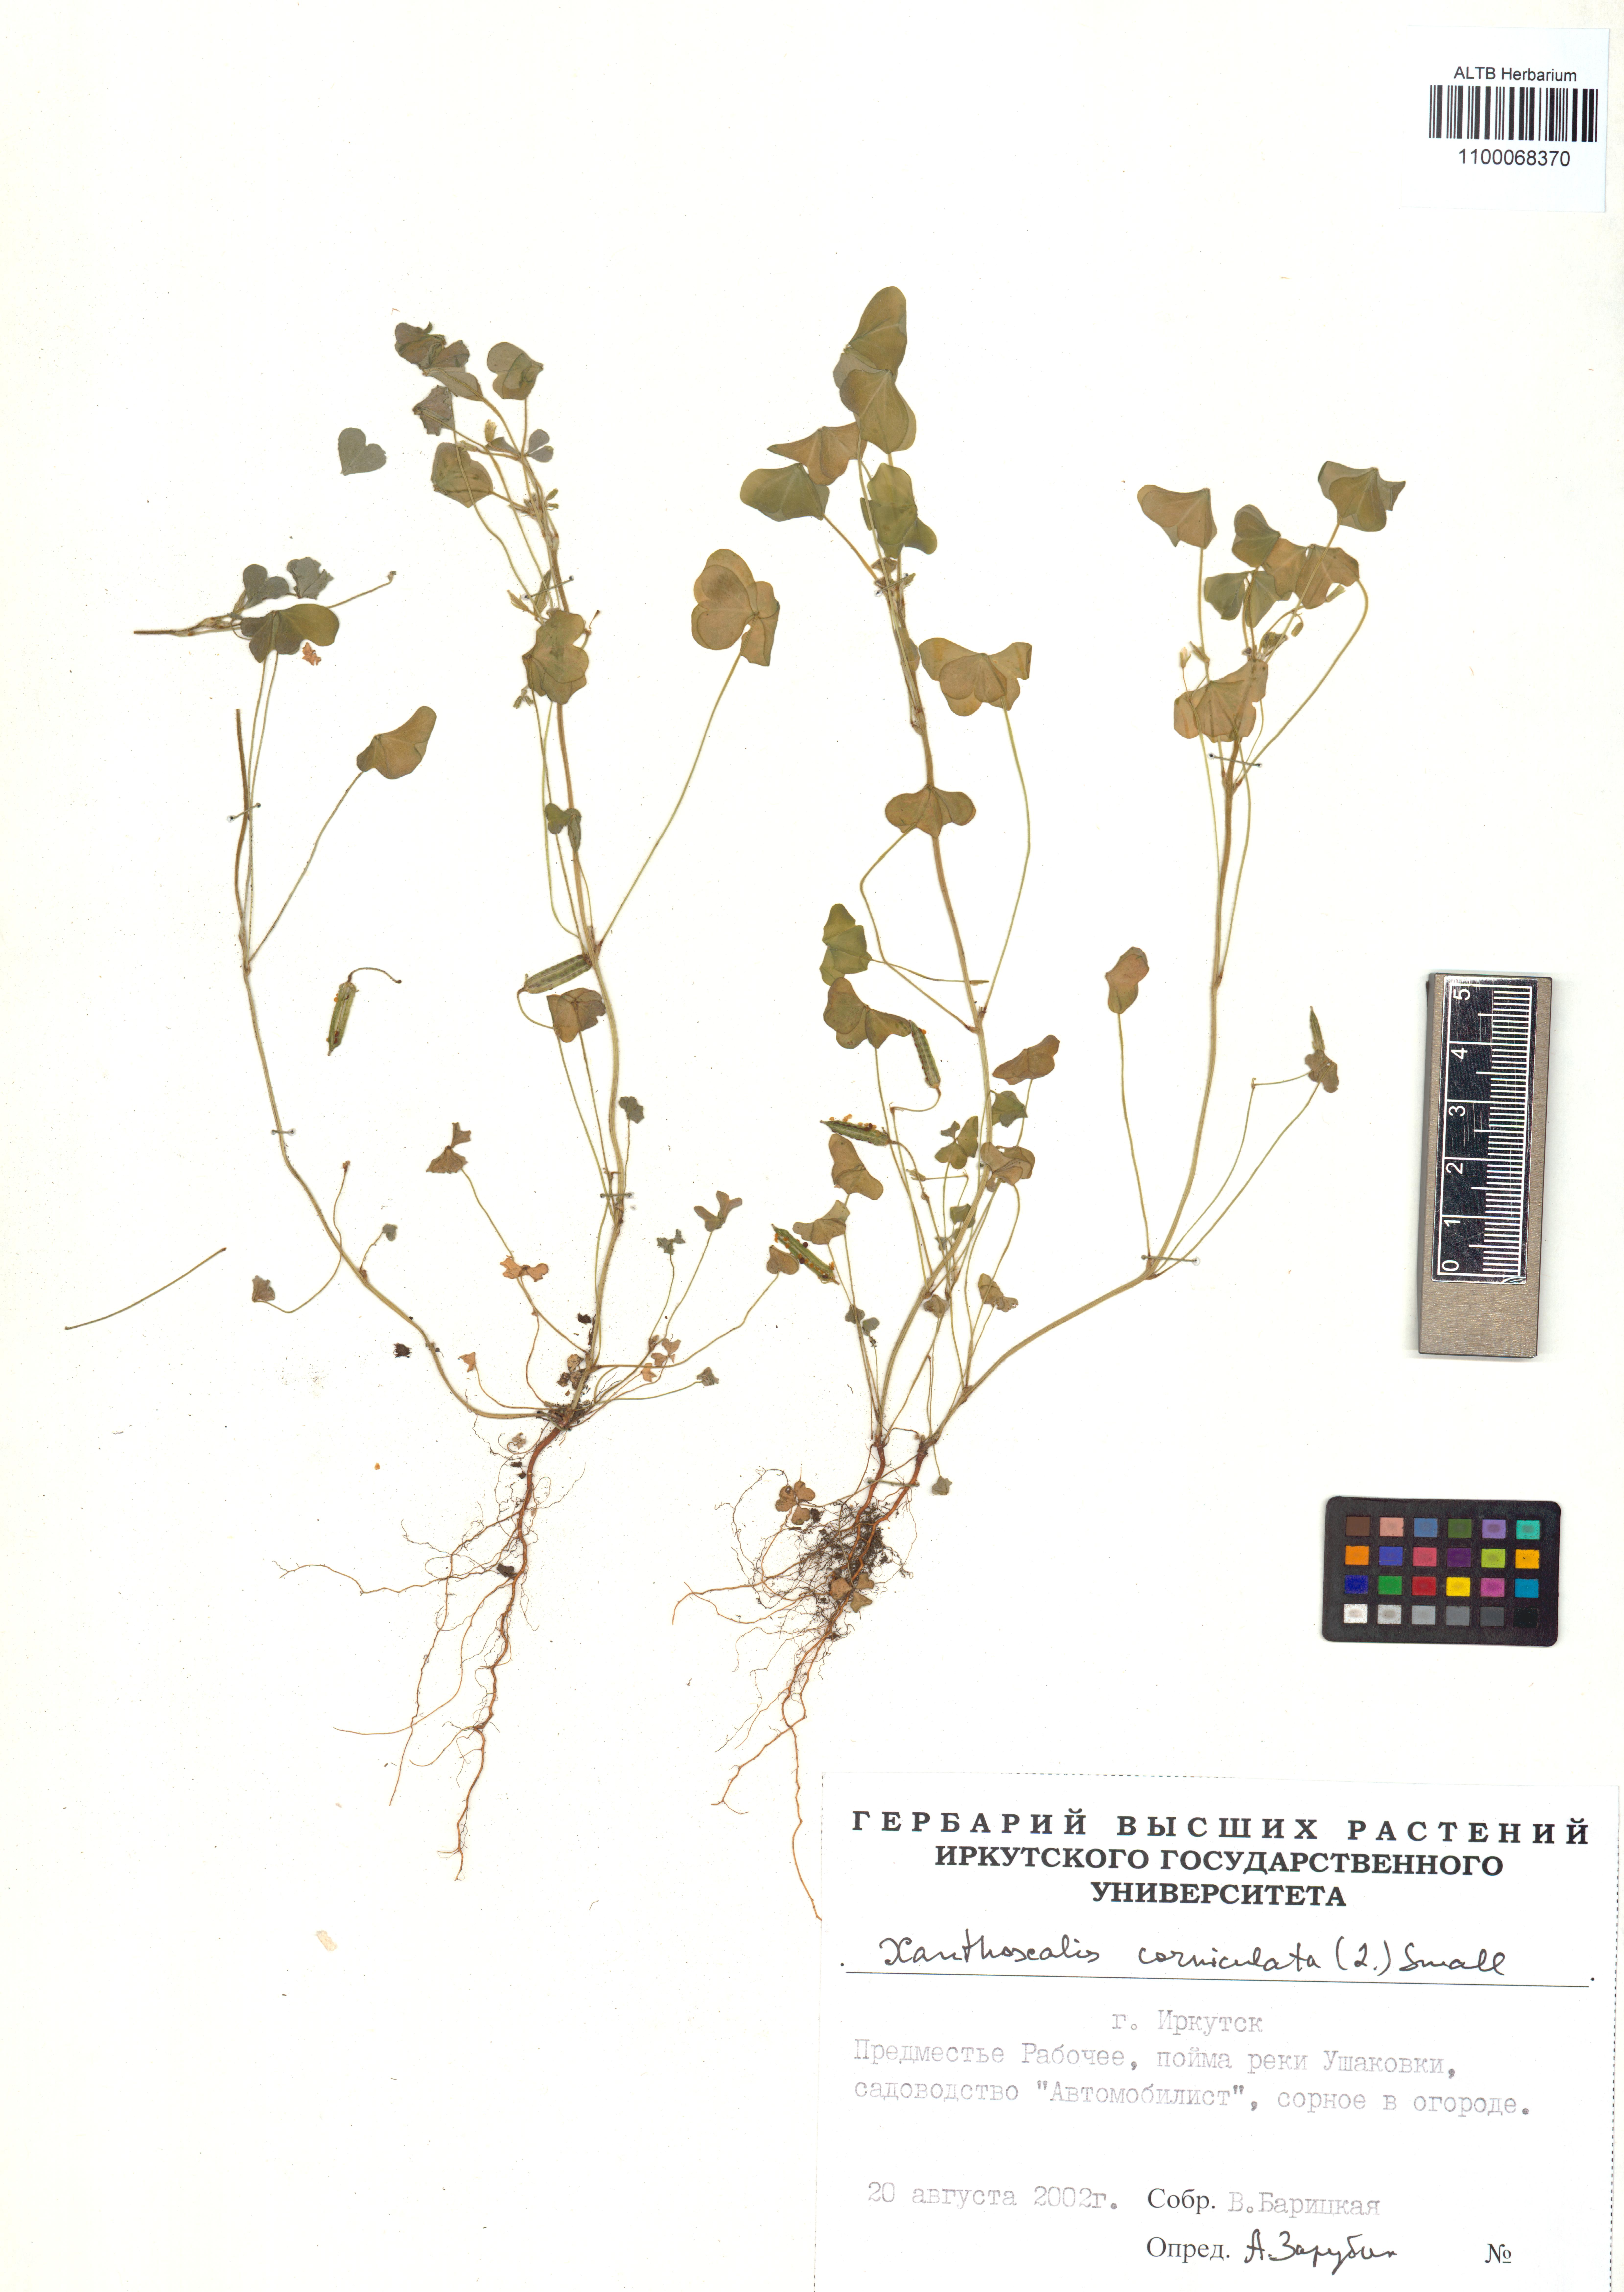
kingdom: Plantae
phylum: Tracheophyta
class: Magnoliopsida
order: Oxalidales
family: Oxalidaceae
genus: Oxalis
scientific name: Oxalis corniculata
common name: Procumbent yellow-sorrel
